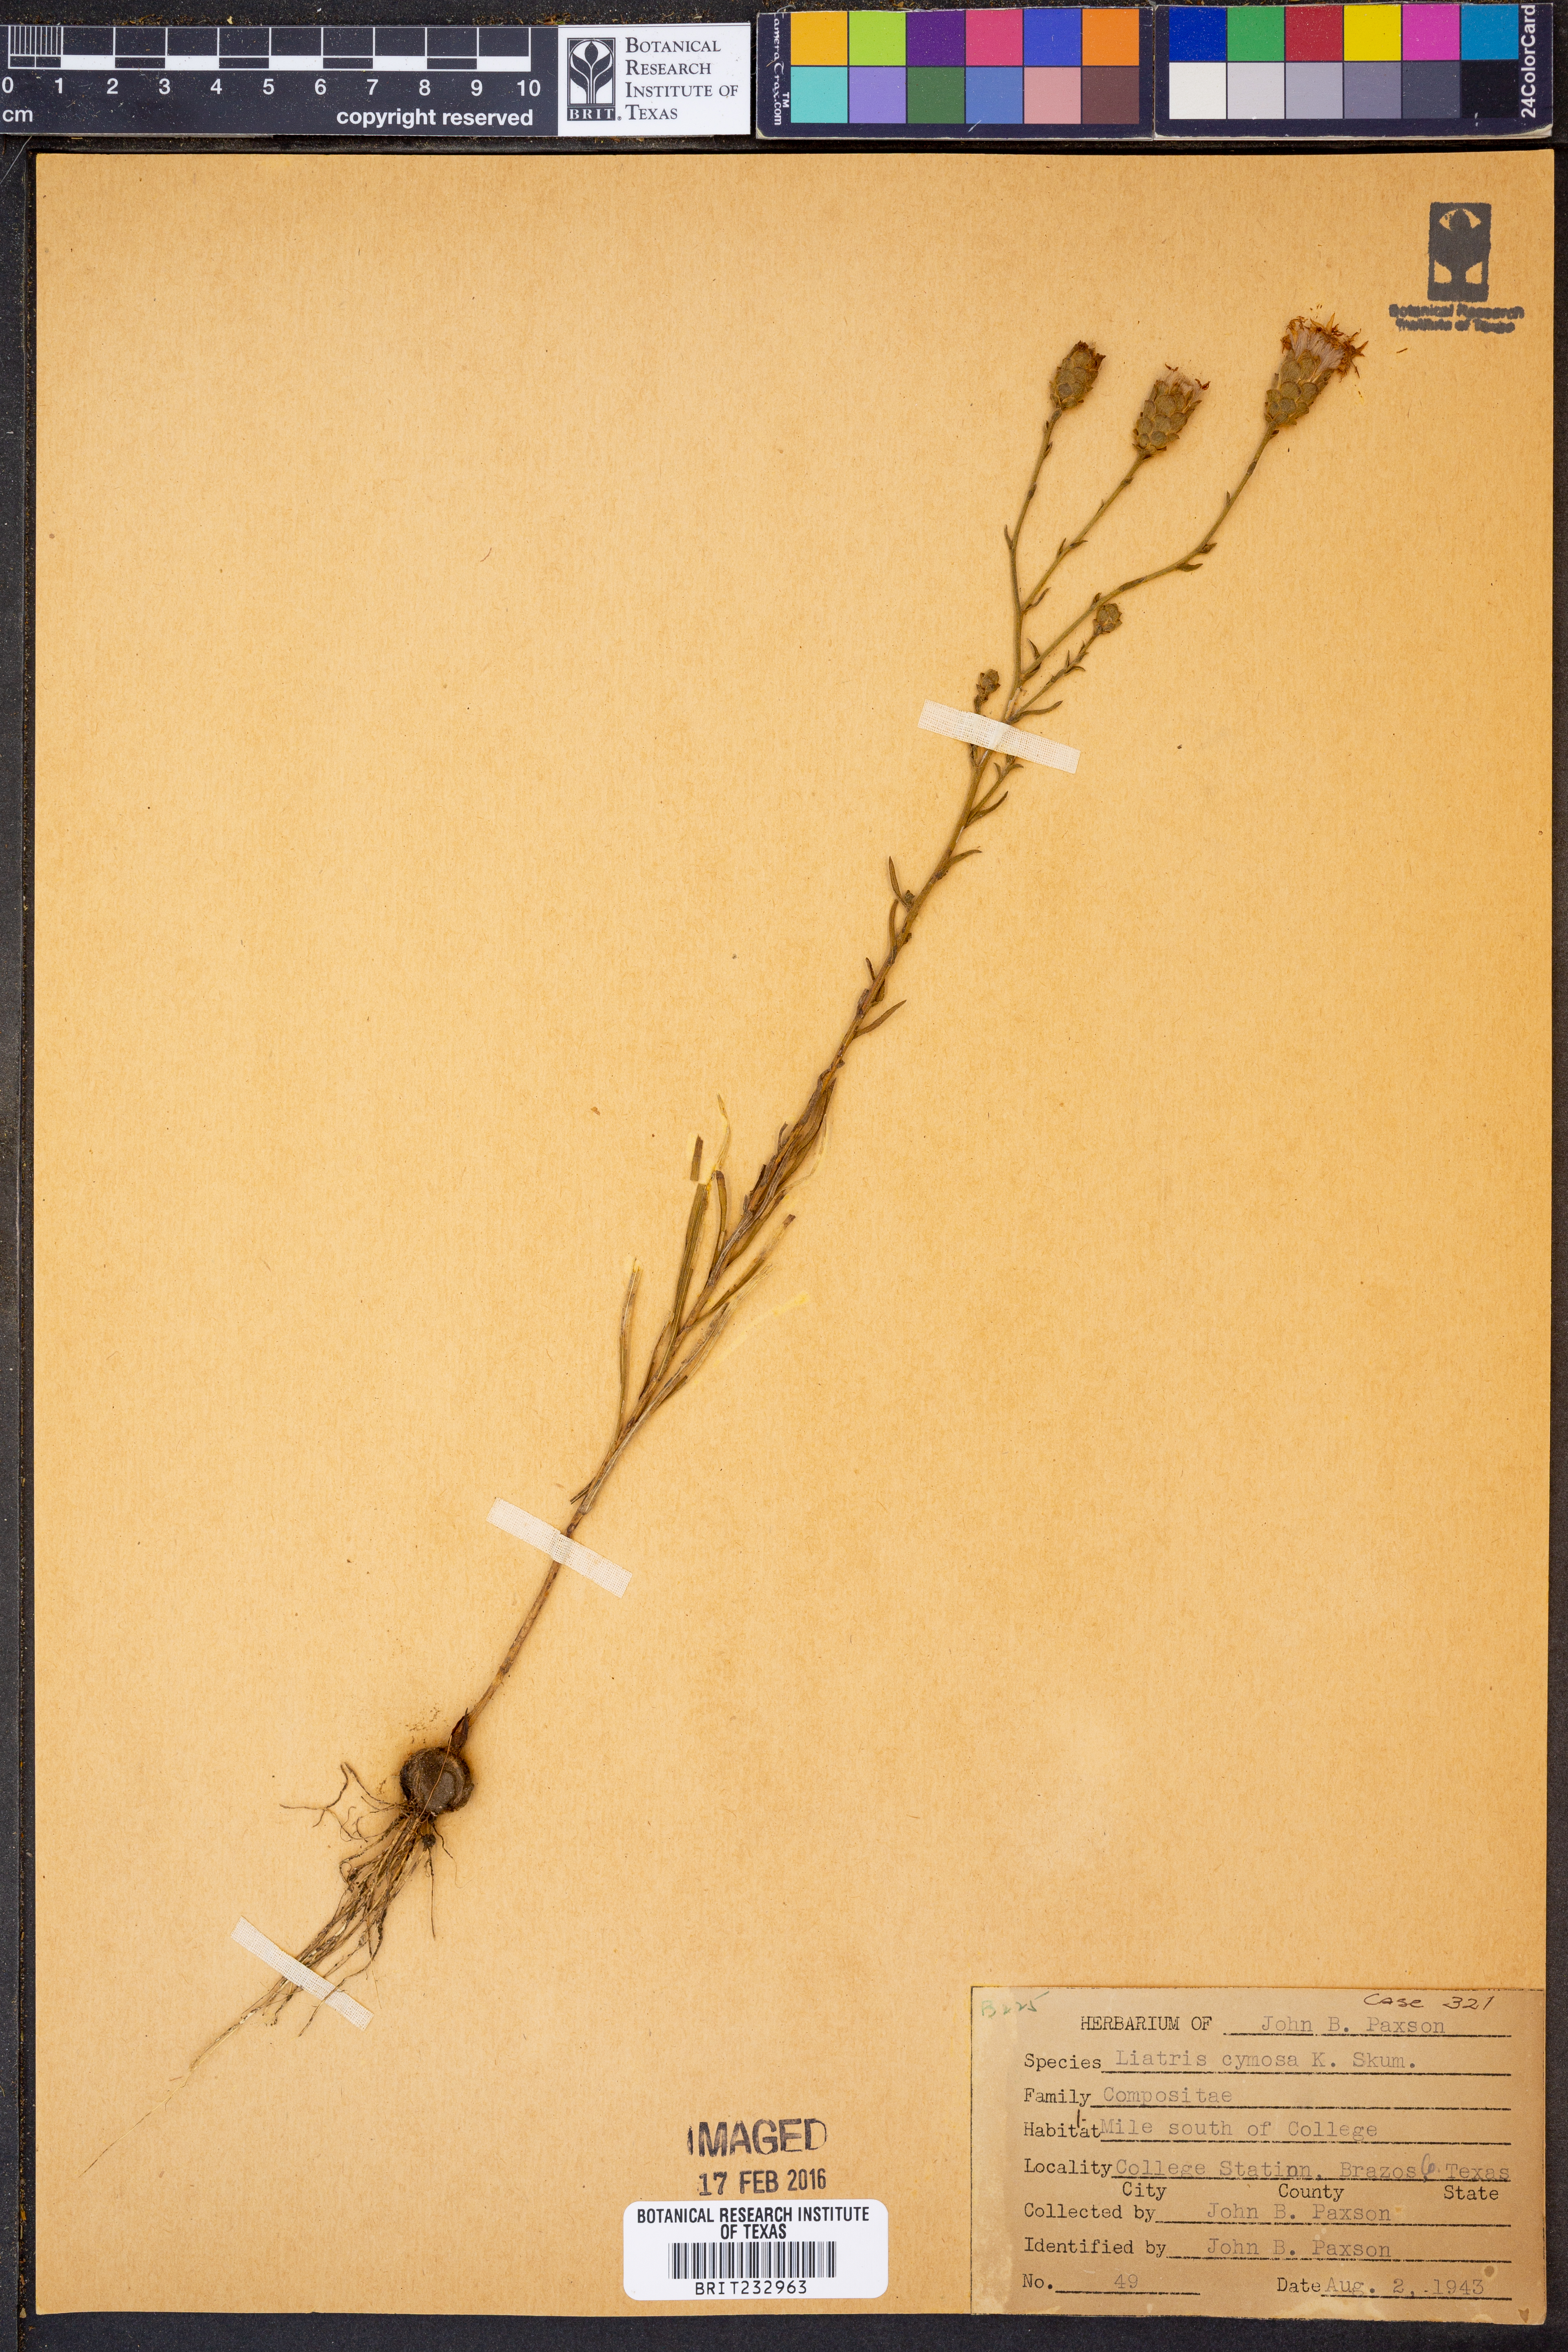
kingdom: Plantae
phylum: Tracheophyta
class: Magnoliopsida
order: Asterales
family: Asteraceae
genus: Liatris
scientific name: Liatris cymosa
